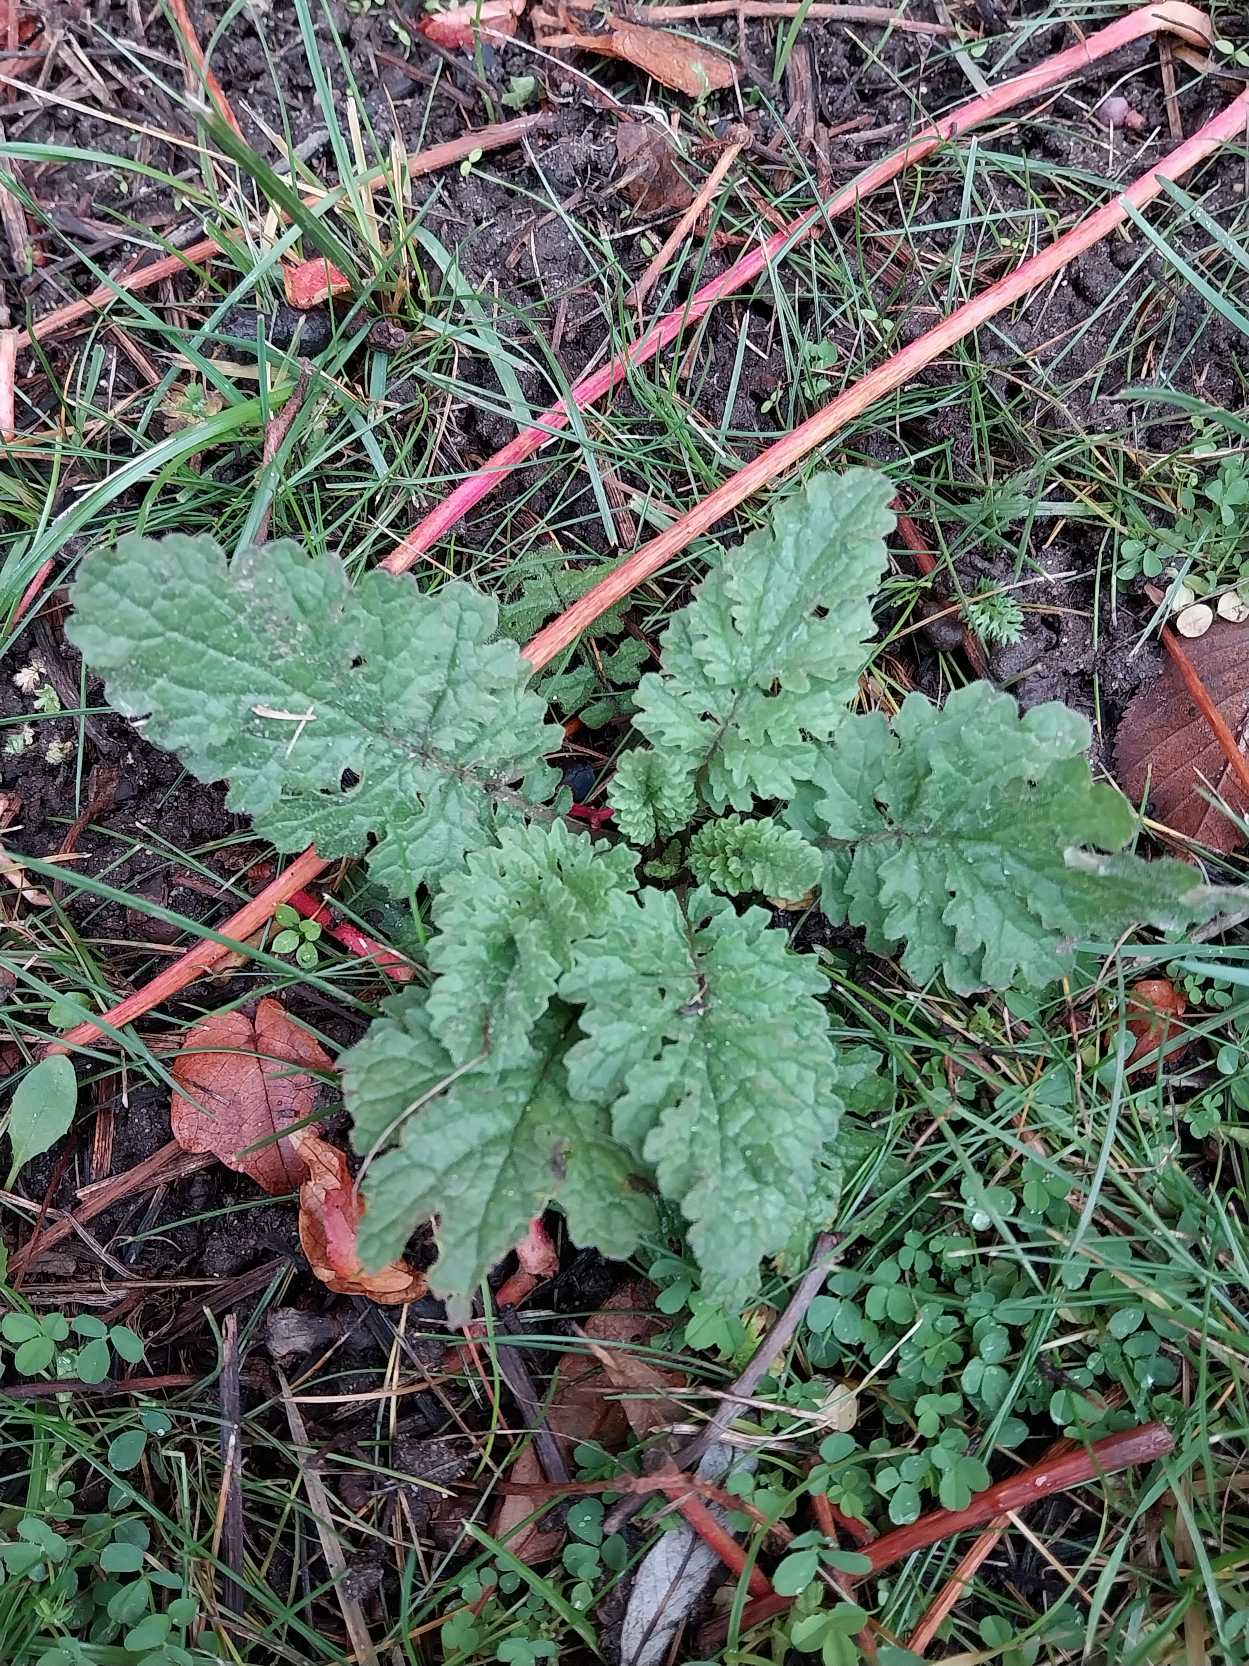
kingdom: Plantae
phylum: Tracheophyta
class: Magnoliopsida
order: Asterales
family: Asteraceae
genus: Jacobaea
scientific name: Jacobaea vulgaris
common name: Eng-brandbæger
